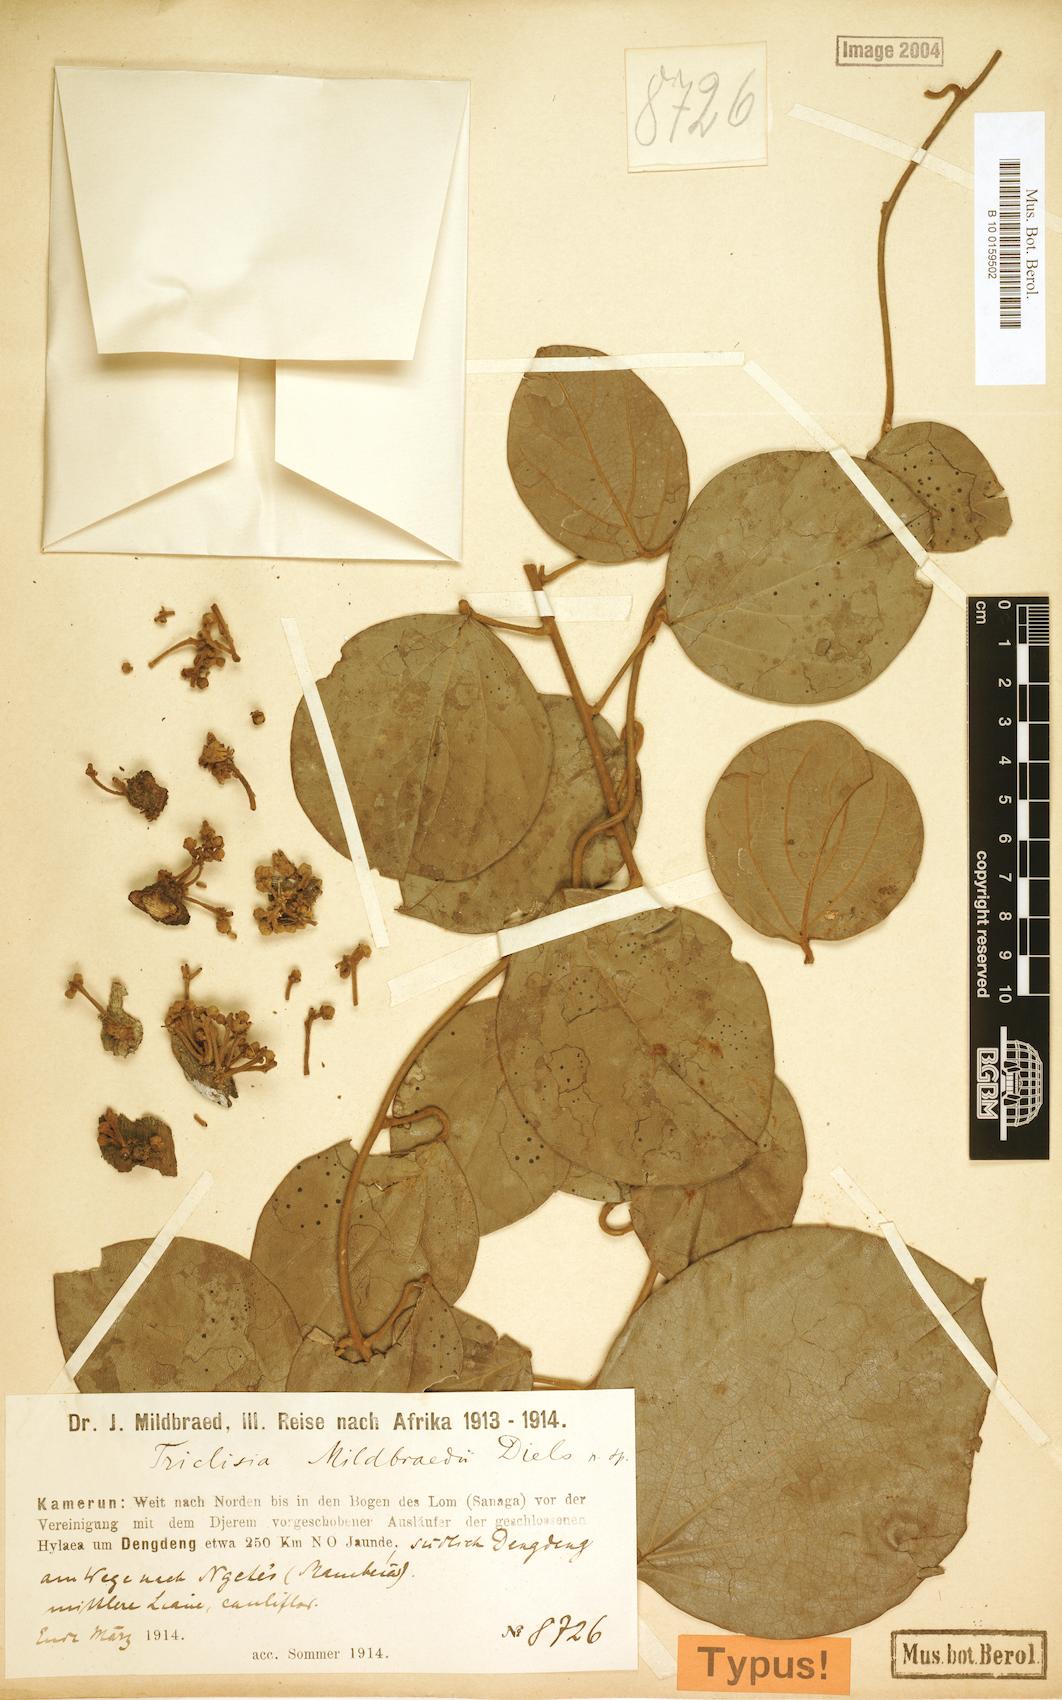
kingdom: Plantae
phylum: Tracheophyta
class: Magnoliopsida
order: Ranunculales
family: Menispermaceae
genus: Triclisia
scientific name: Triclisia
